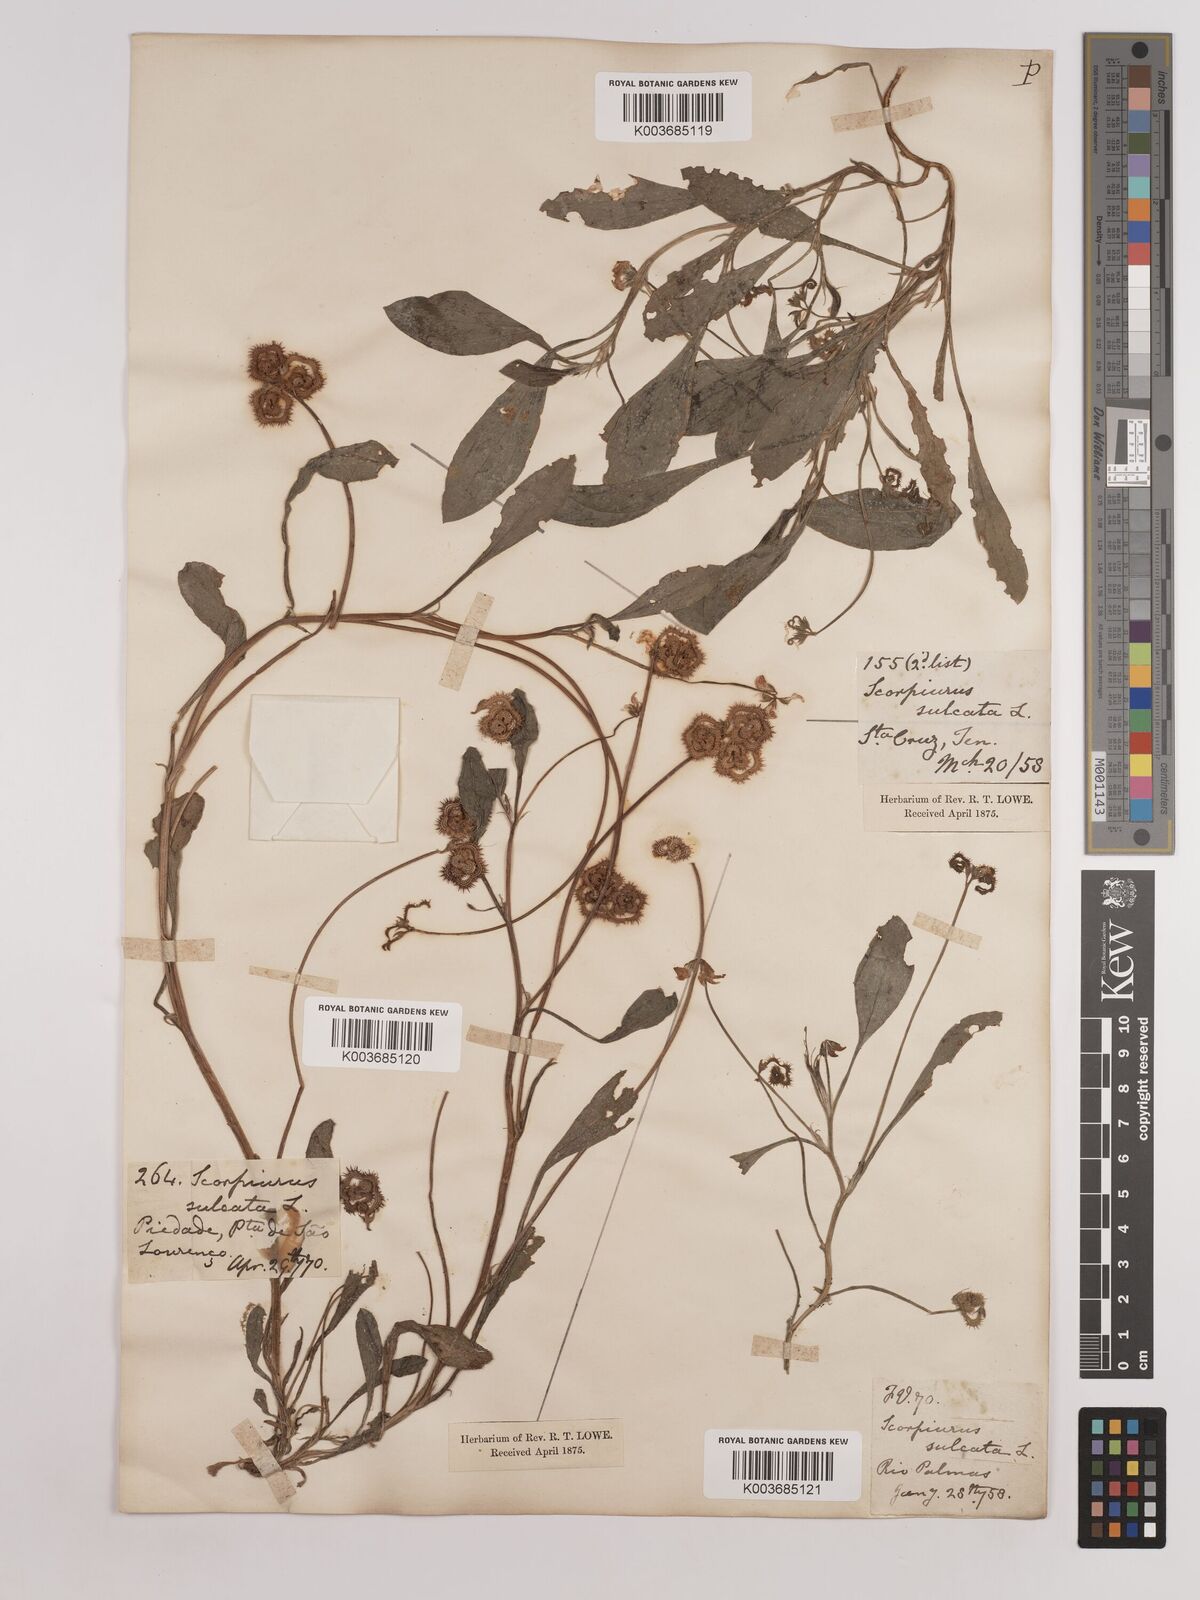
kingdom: Plantae
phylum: Tracheophyta
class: Magnoliopsida
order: Fabales
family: Fabaceae
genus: Scorpiurus
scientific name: Scorpiurus muricatus
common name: Caterpillar-plant
